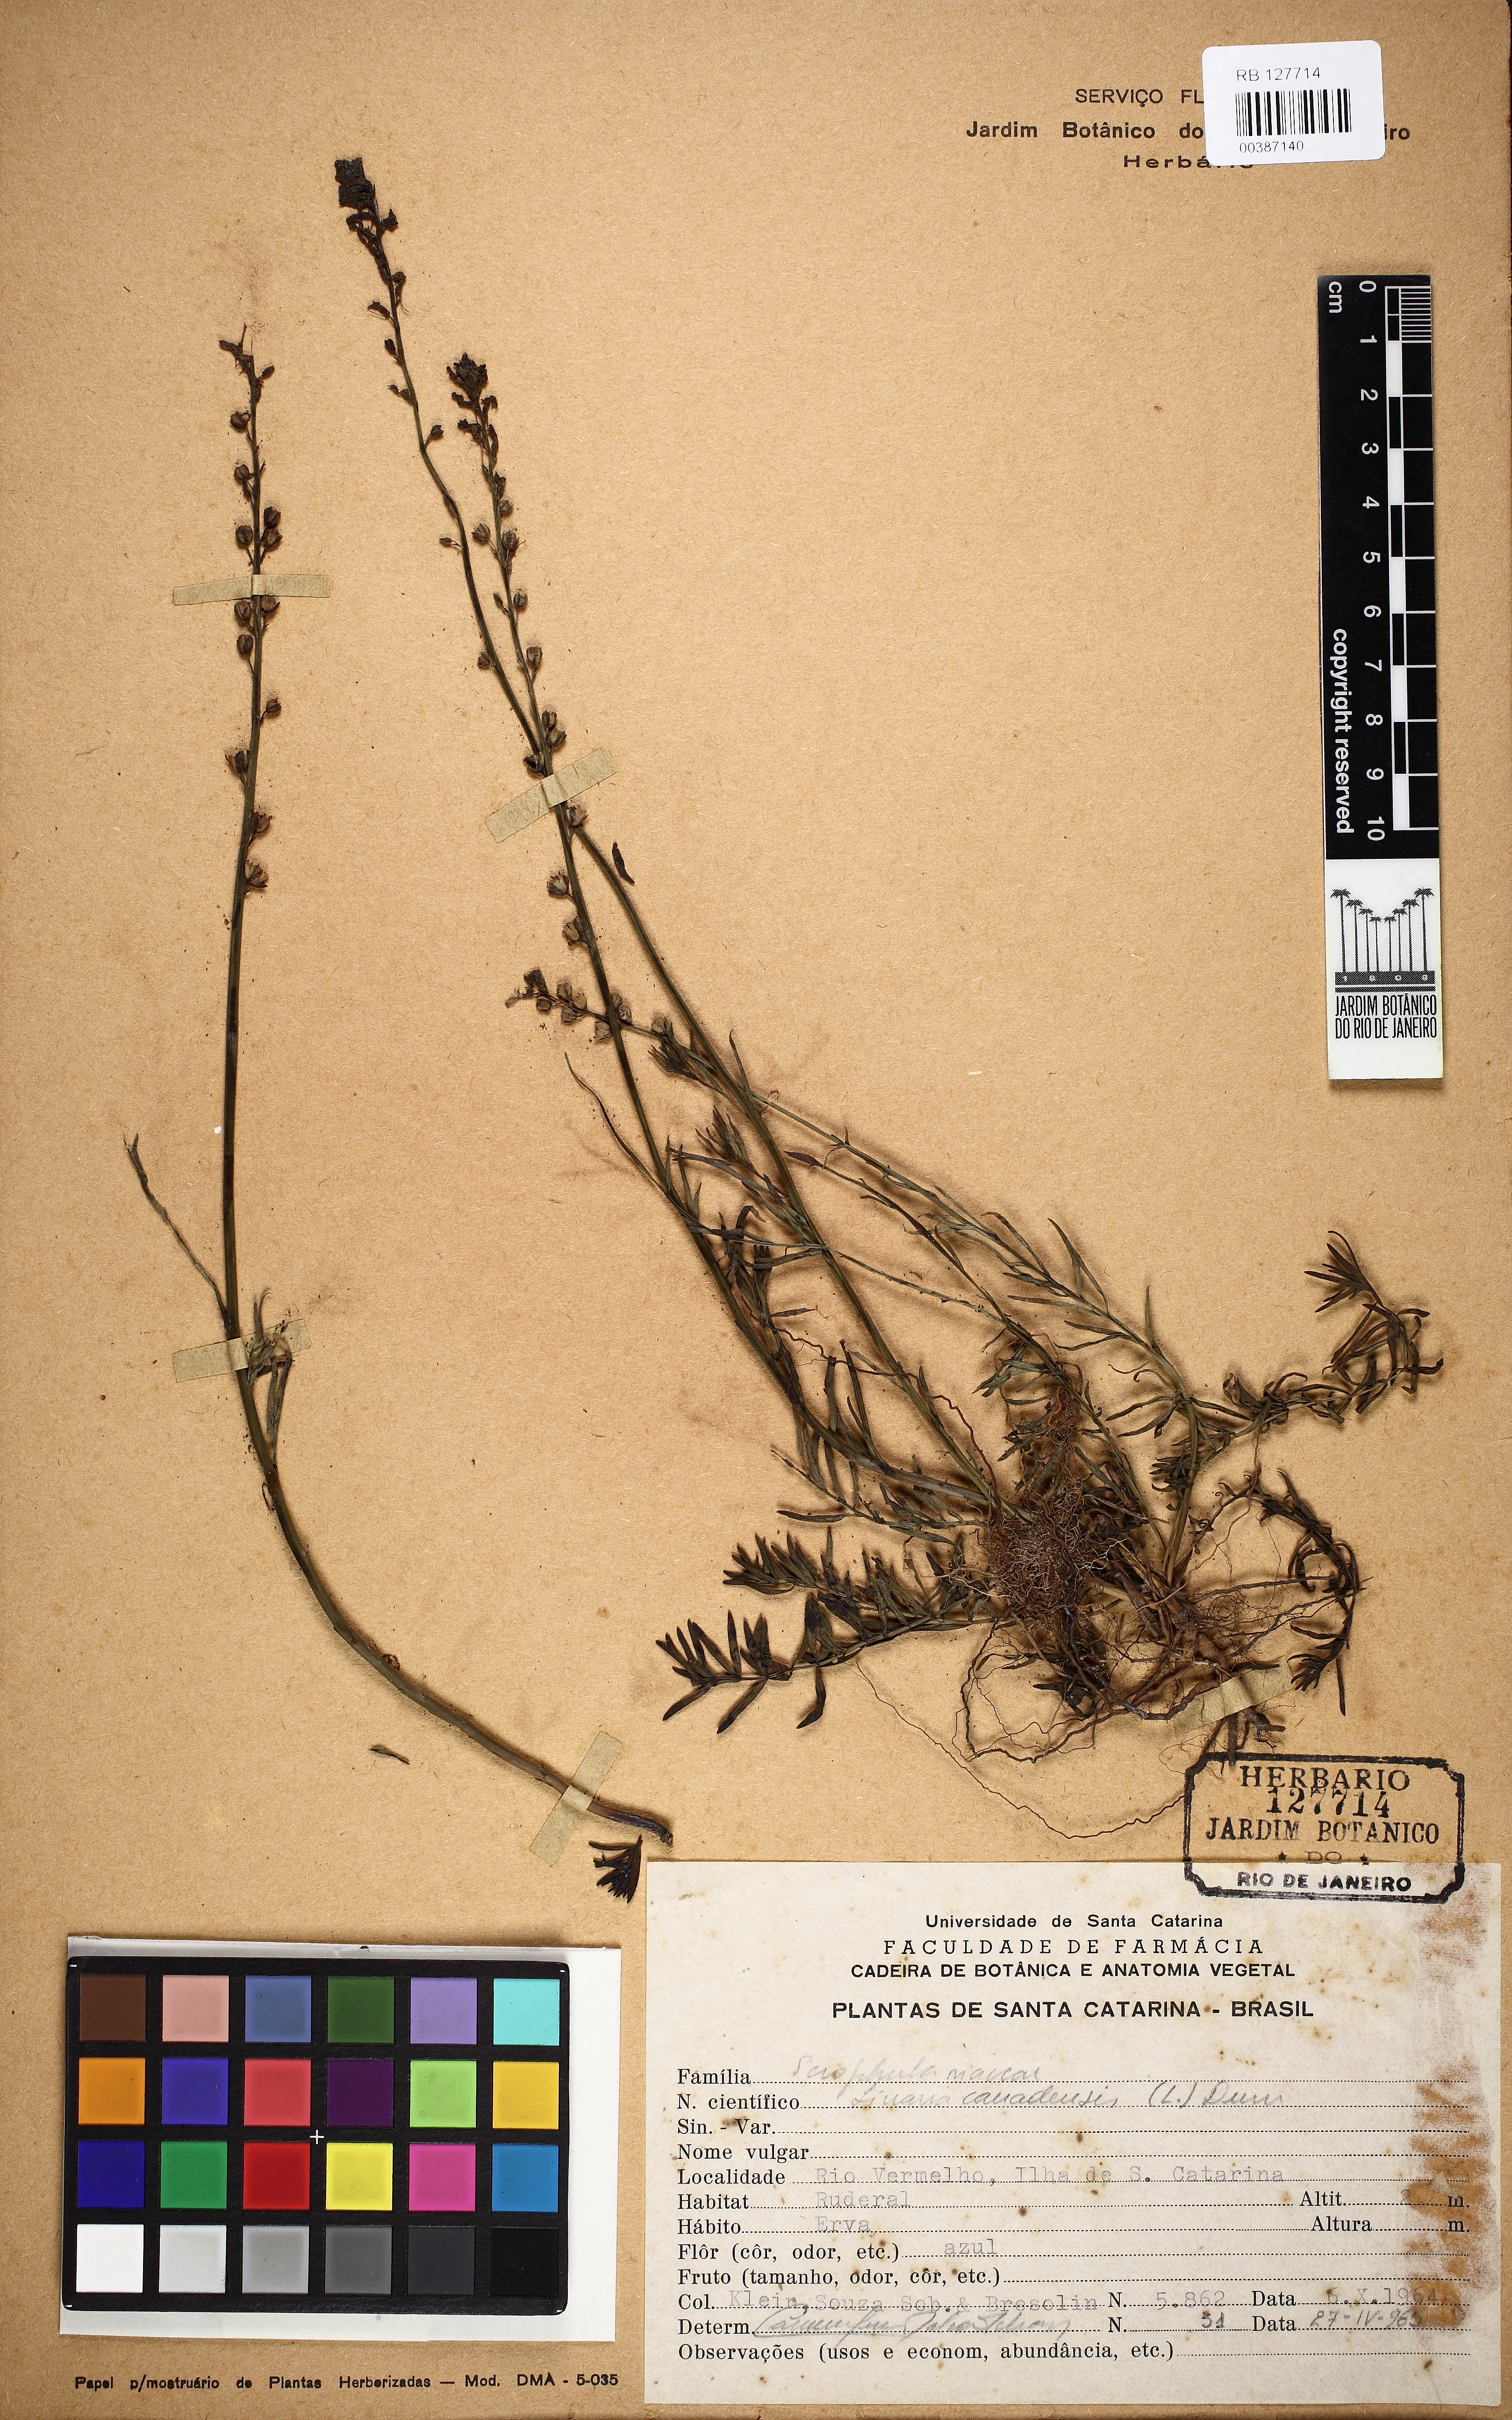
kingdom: Plantae
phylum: Tracheophyta
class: Magnoliopsida
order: Lamiales
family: Plantaginaceae
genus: Nuttallanthus
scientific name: Nuttallanthus canadensis
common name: Blue toadflax
